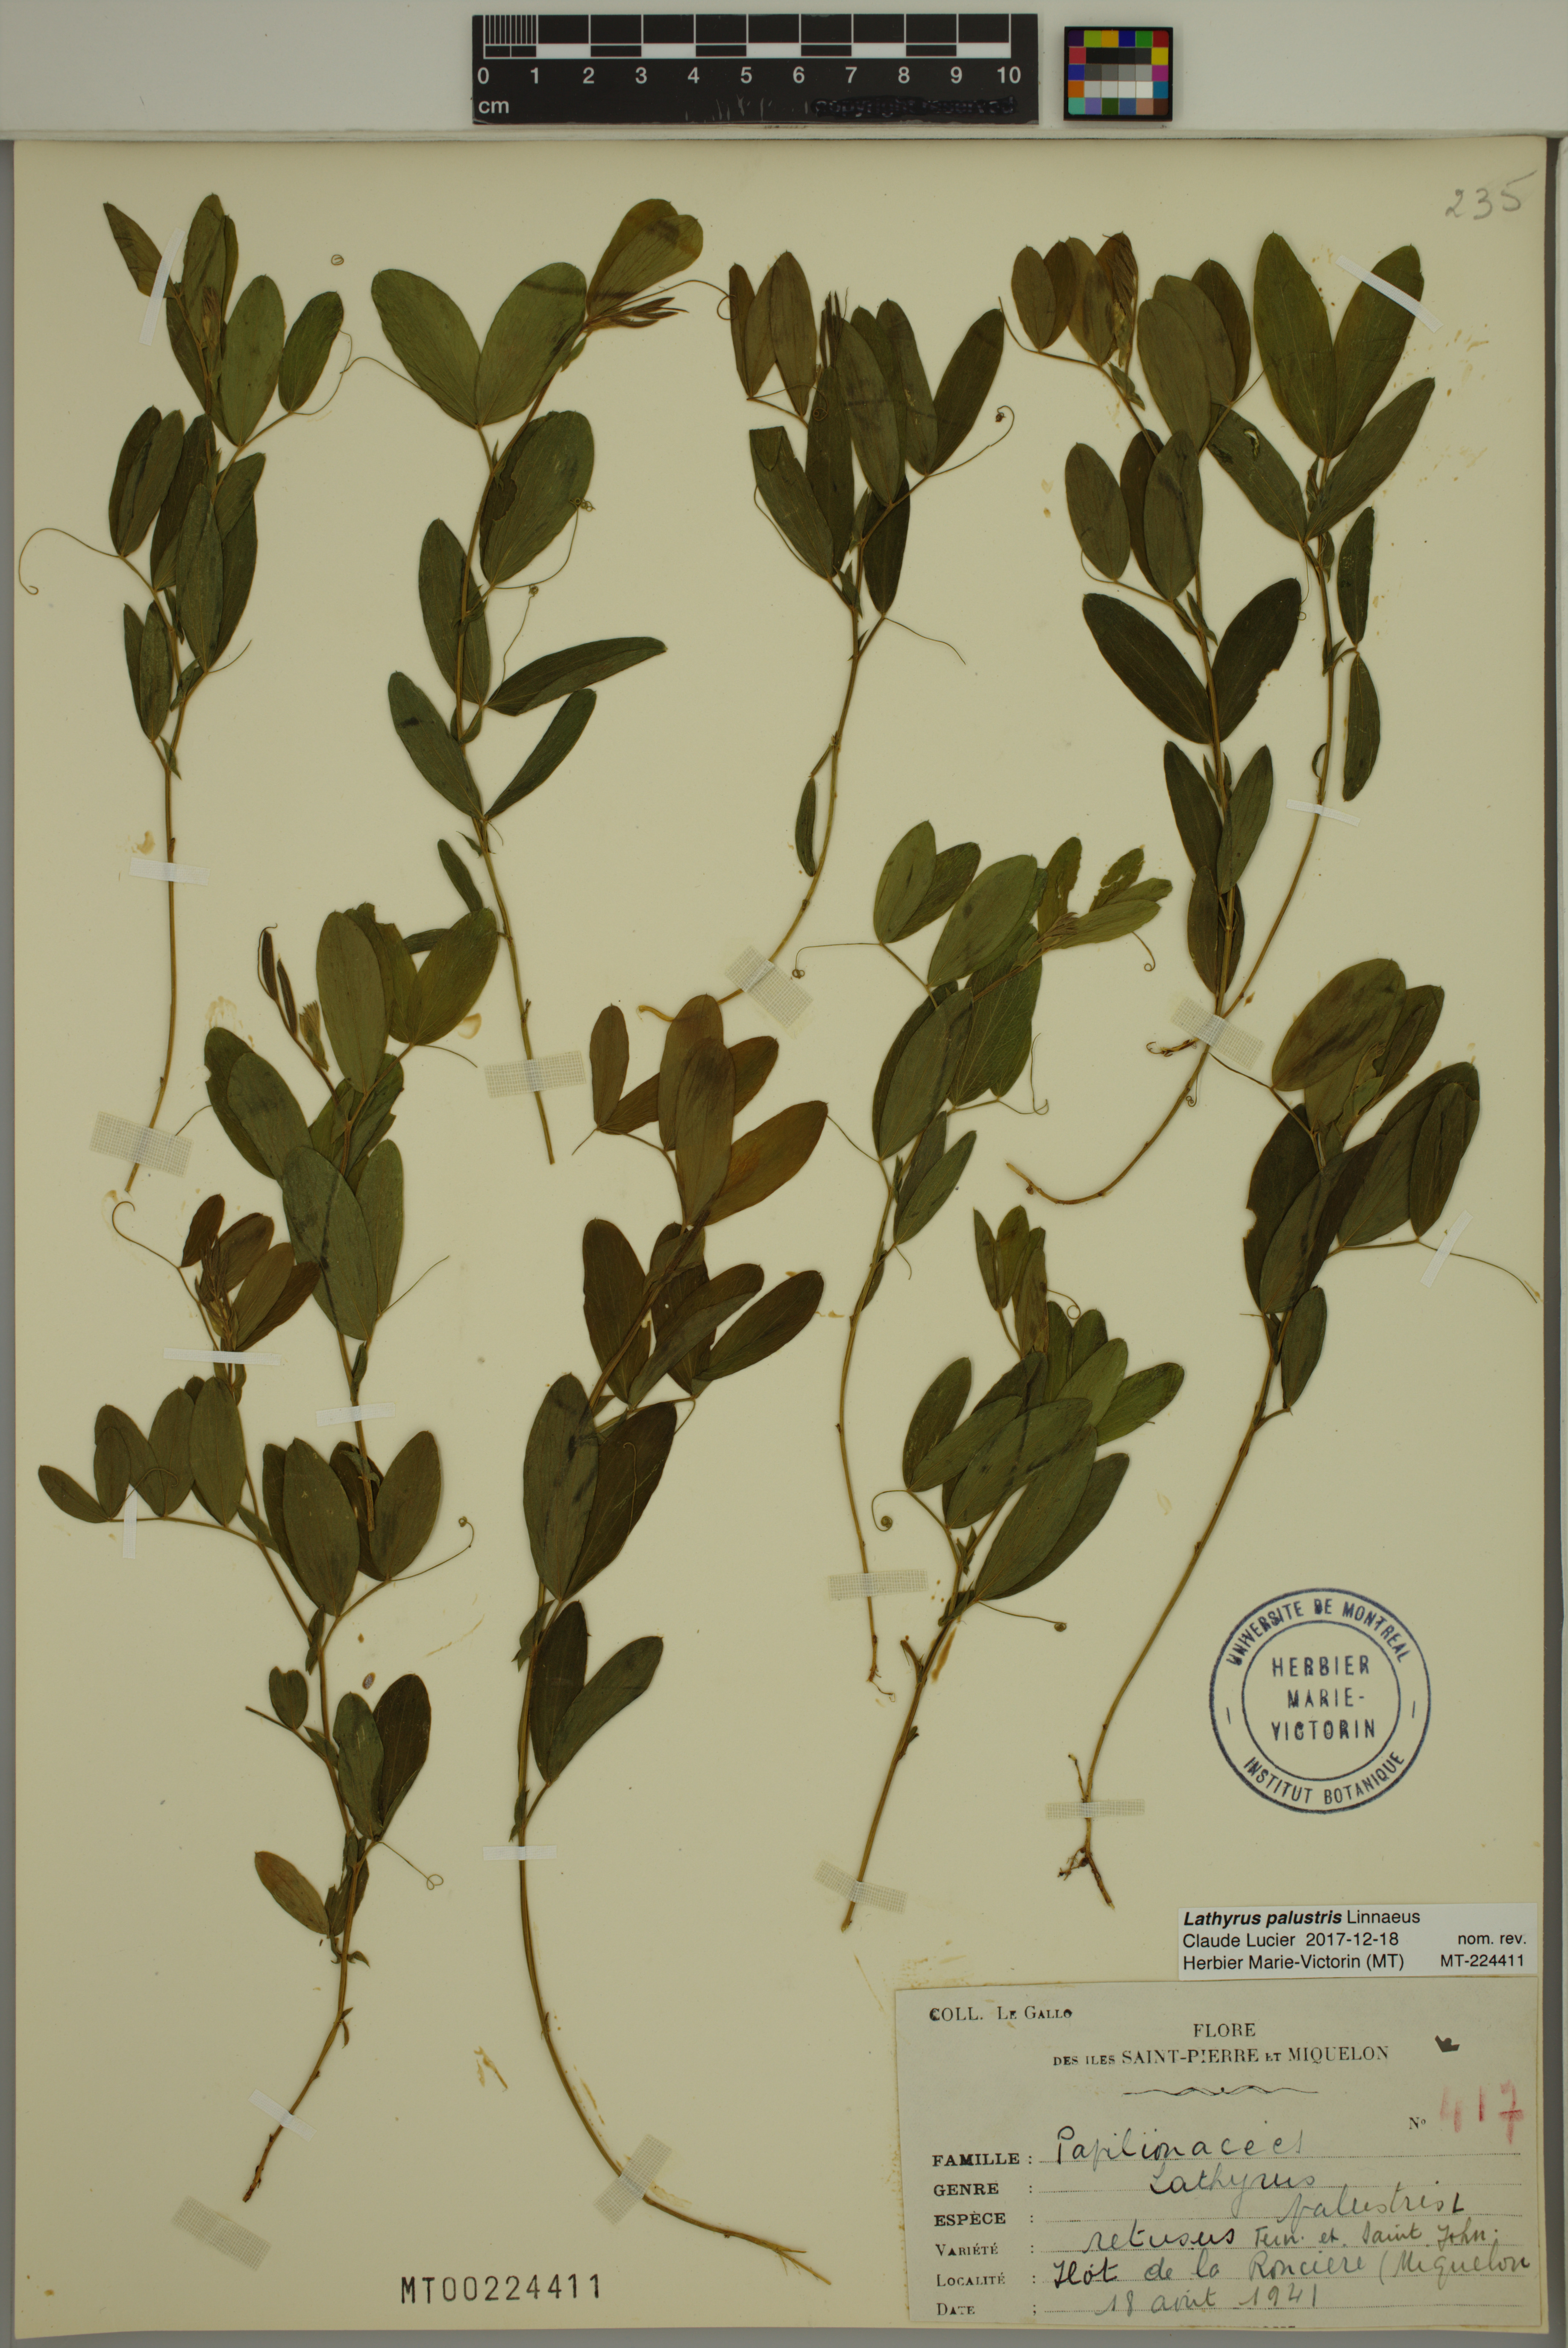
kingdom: Plantae
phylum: Tracheophyta
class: Magnoliopsida
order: Fabales
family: Fabaceae
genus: Lathyrus
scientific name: Lathyrus palustris
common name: Marsh pea
